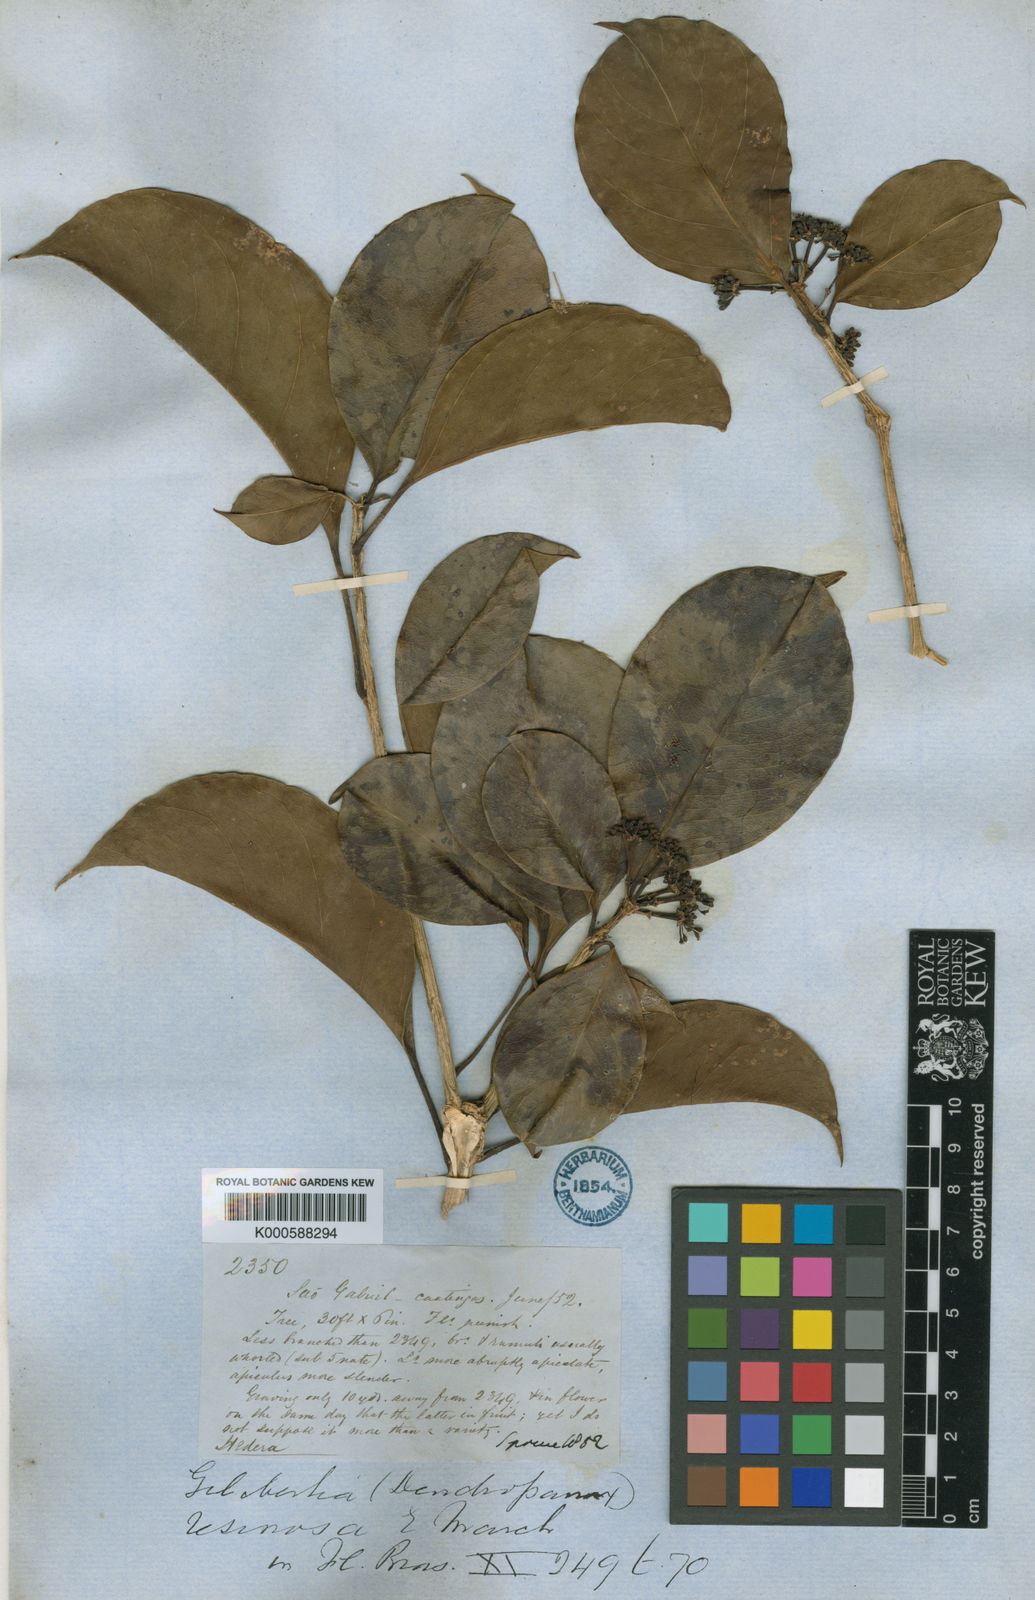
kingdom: Plantae
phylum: Tracheophyta
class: Magnoliopsida
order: Apiales
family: Araliaceae
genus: Dendropanax
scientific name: Dendropanax resinosus
